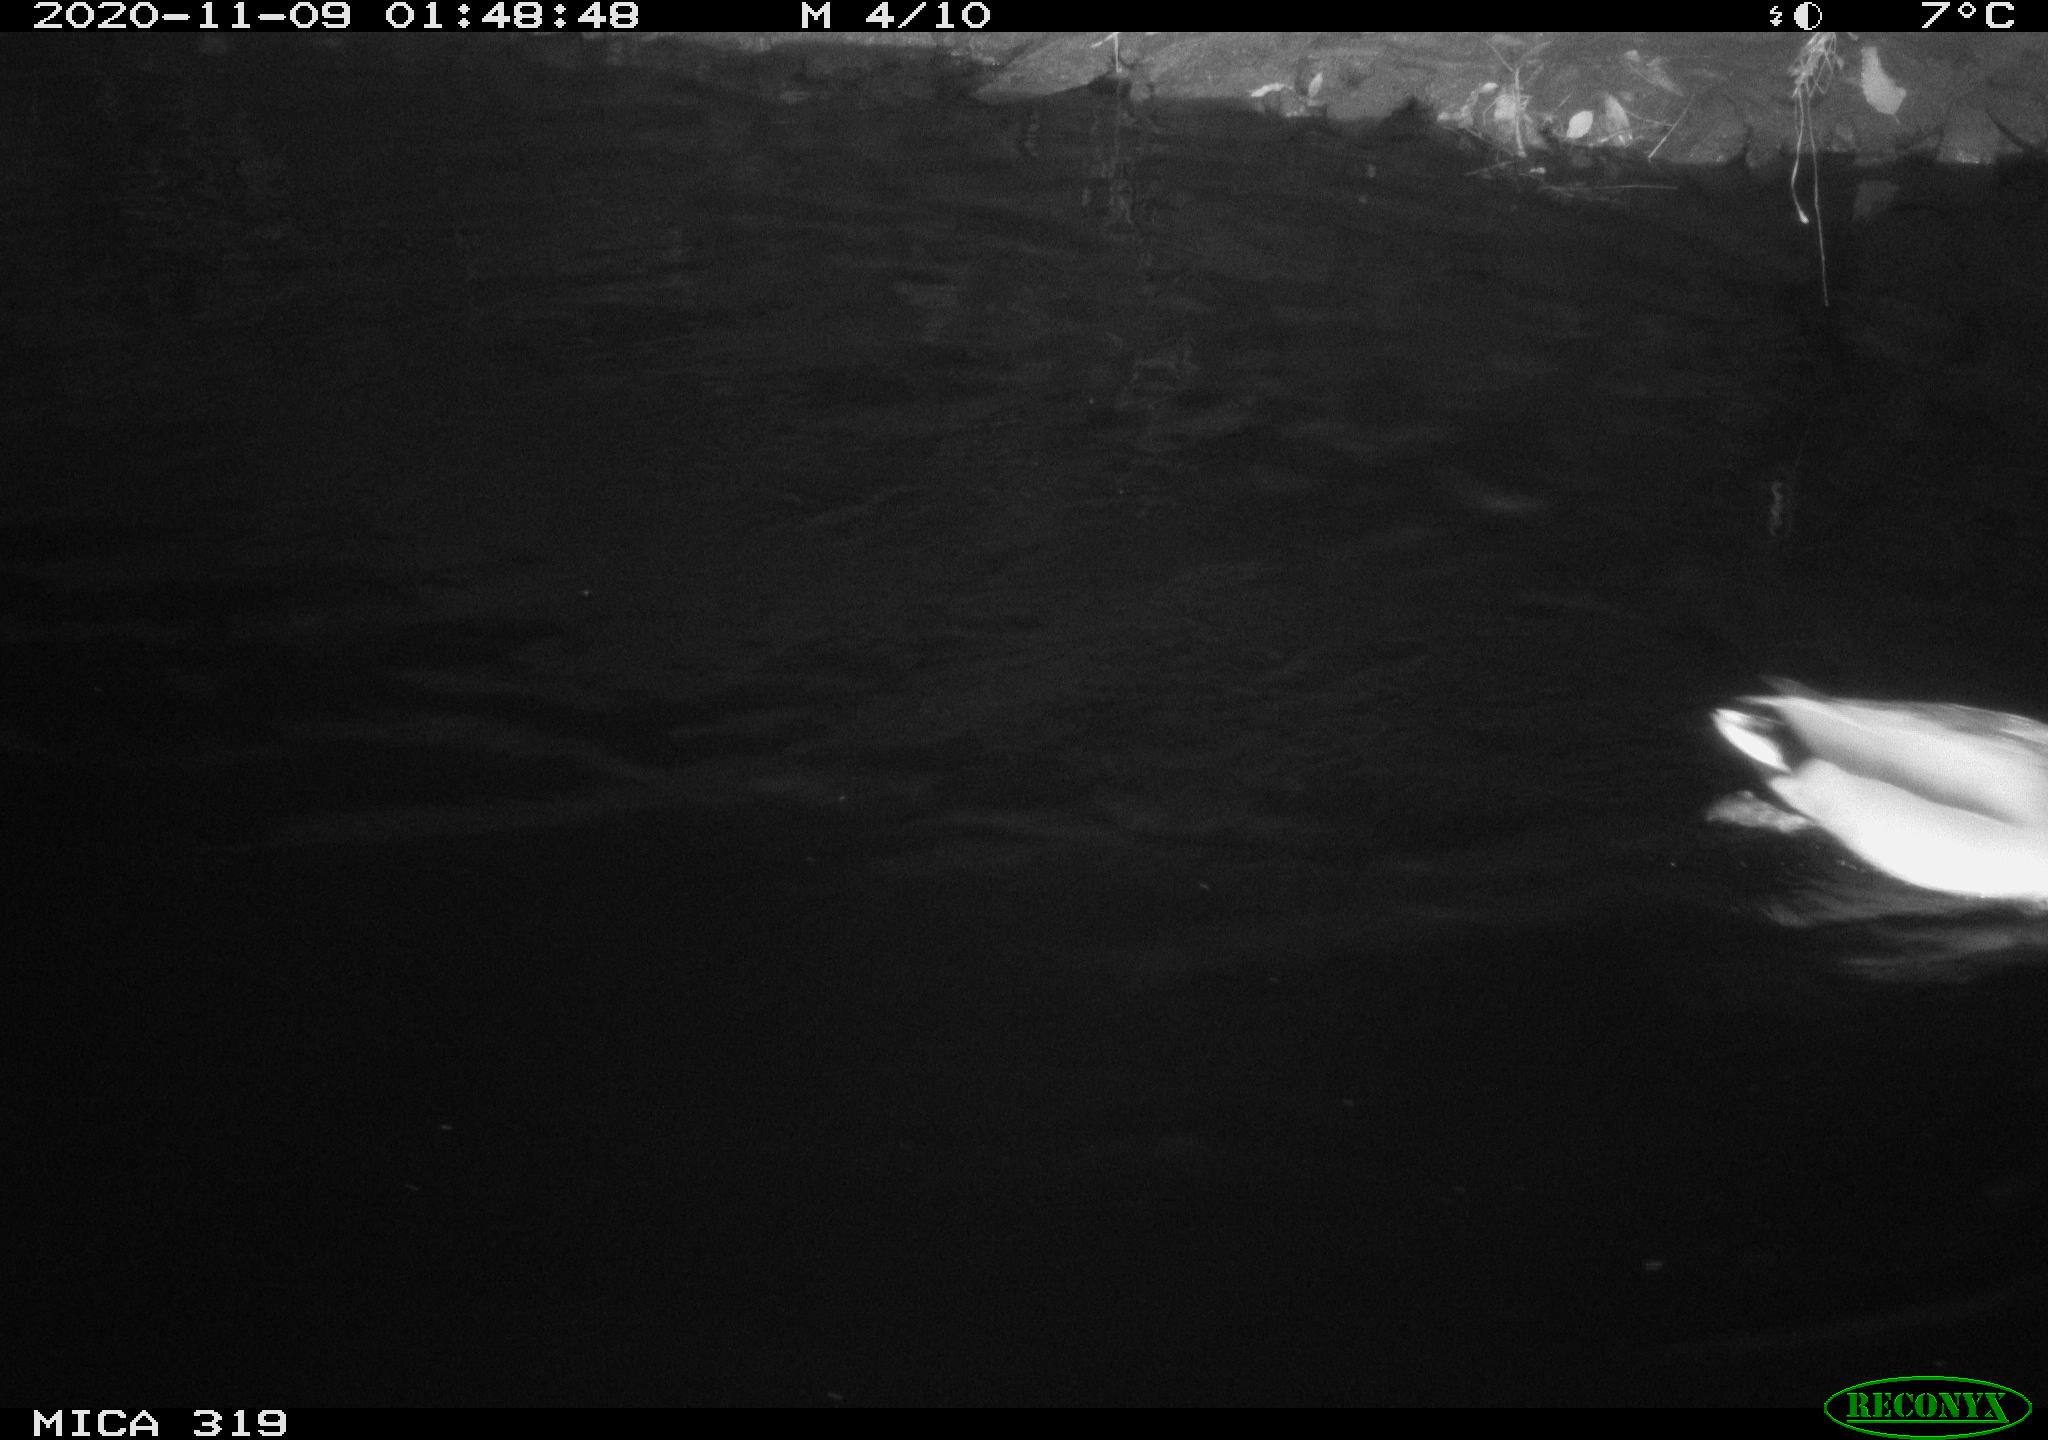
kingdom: Animalia
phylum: Chordata
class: Aves
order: Anseriformes
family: Anatidae
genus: Anas
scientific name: Anas platyrhynchos
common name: Mallard
